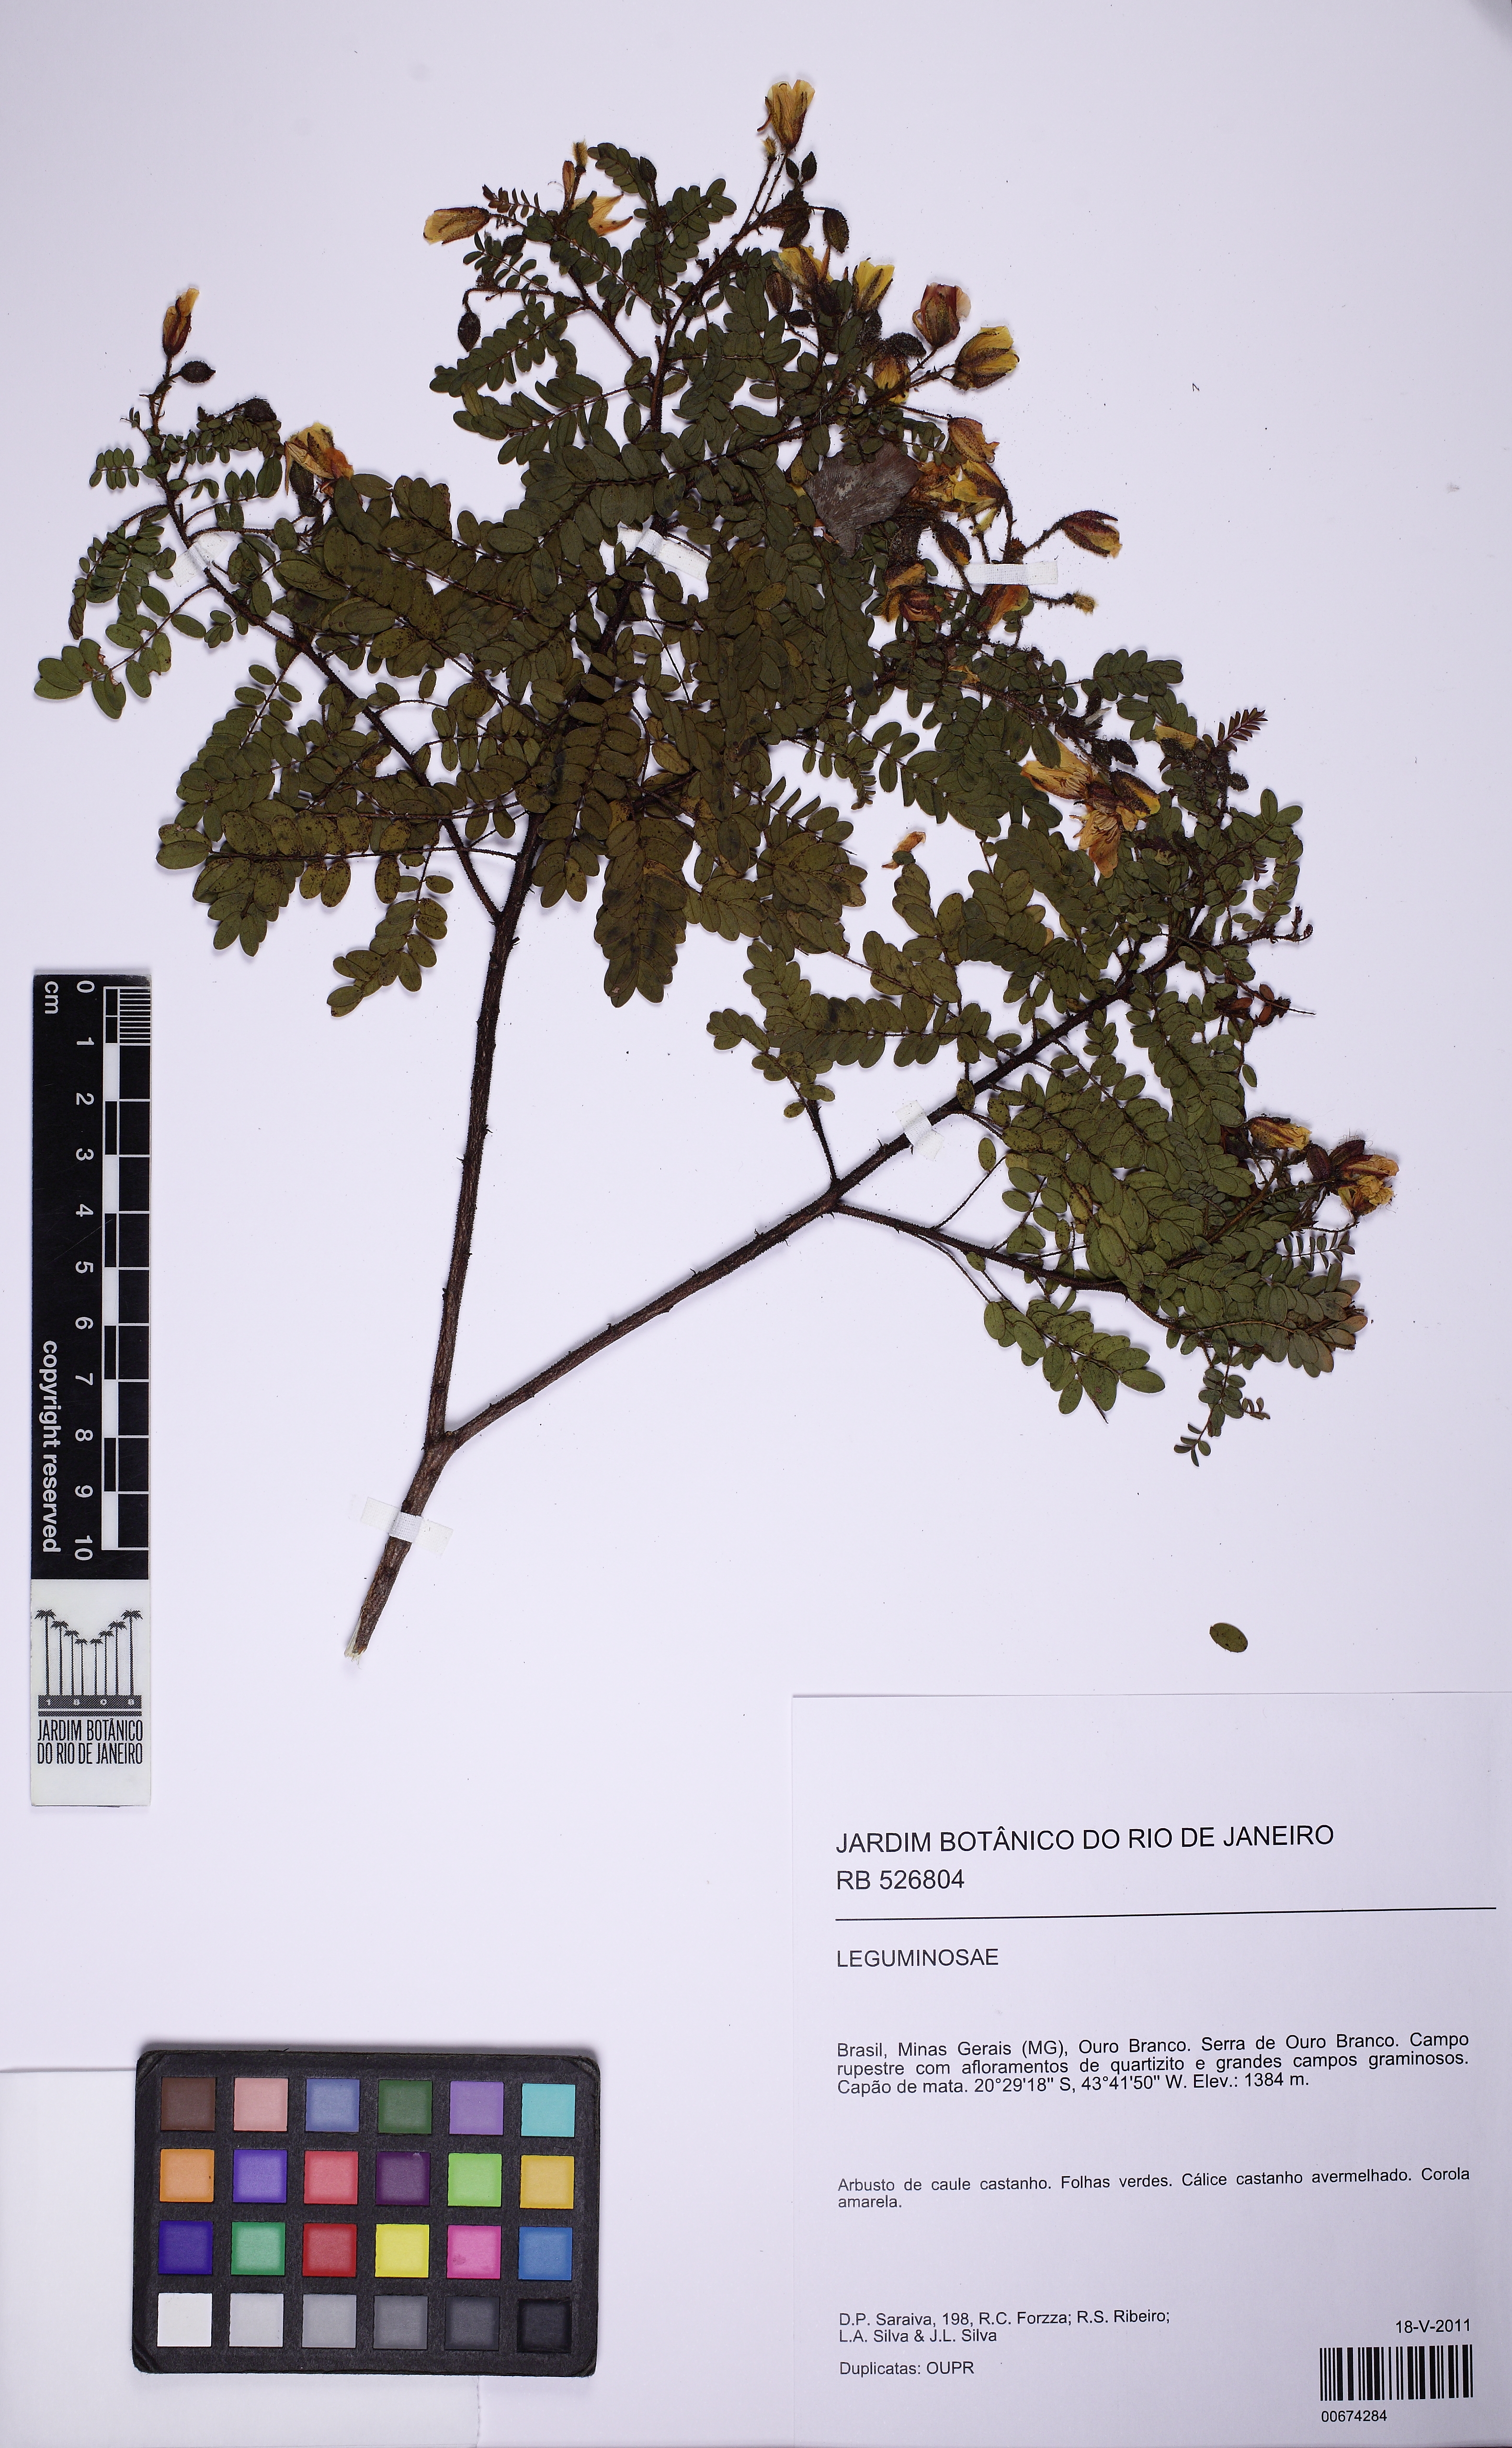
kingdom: Plantae
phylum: Tracheophyta
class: Magnoliopsida
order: Fabales
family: Fabaceae
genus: Chamaecrista
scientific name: Chamaecrista multipennis
